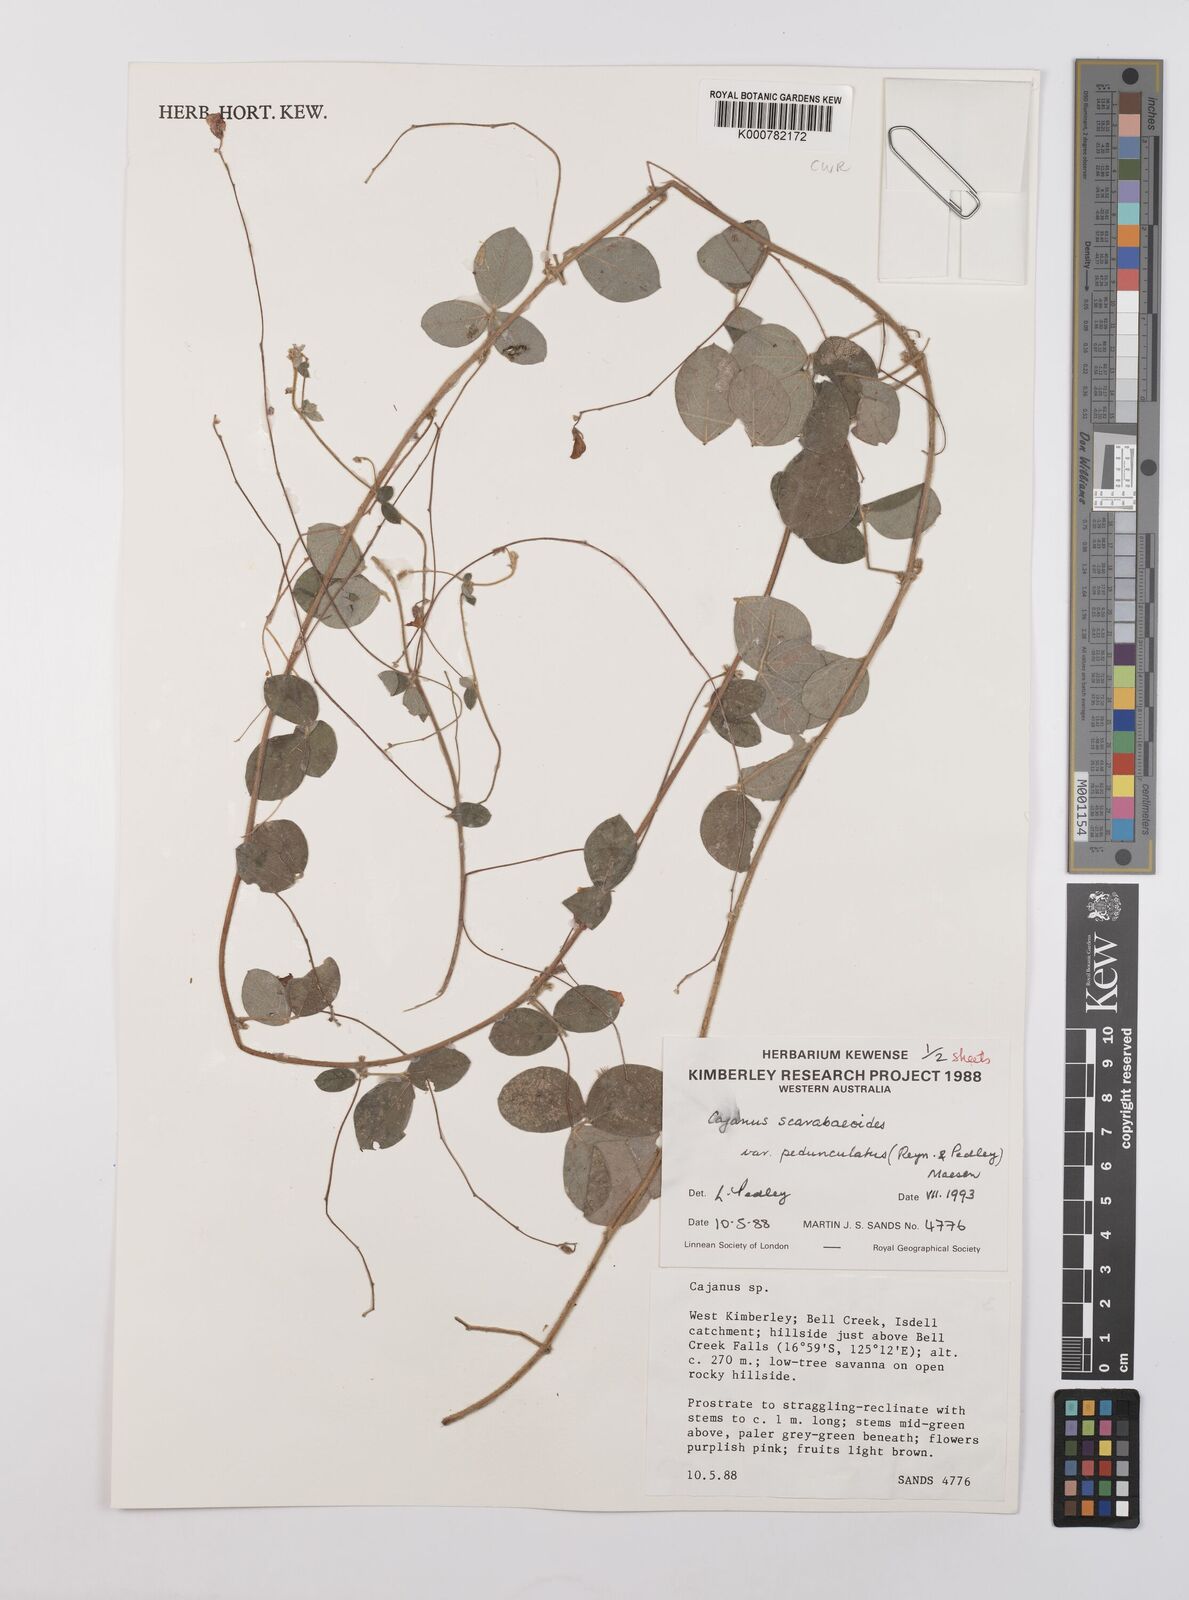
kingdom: Plantae
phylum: Tracheophyta
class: Magnoliopsida
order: Fabales
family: Fabaceae
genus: Cajanus
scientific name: Cajanus scarabaeoides
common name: Showy pigeonpea
